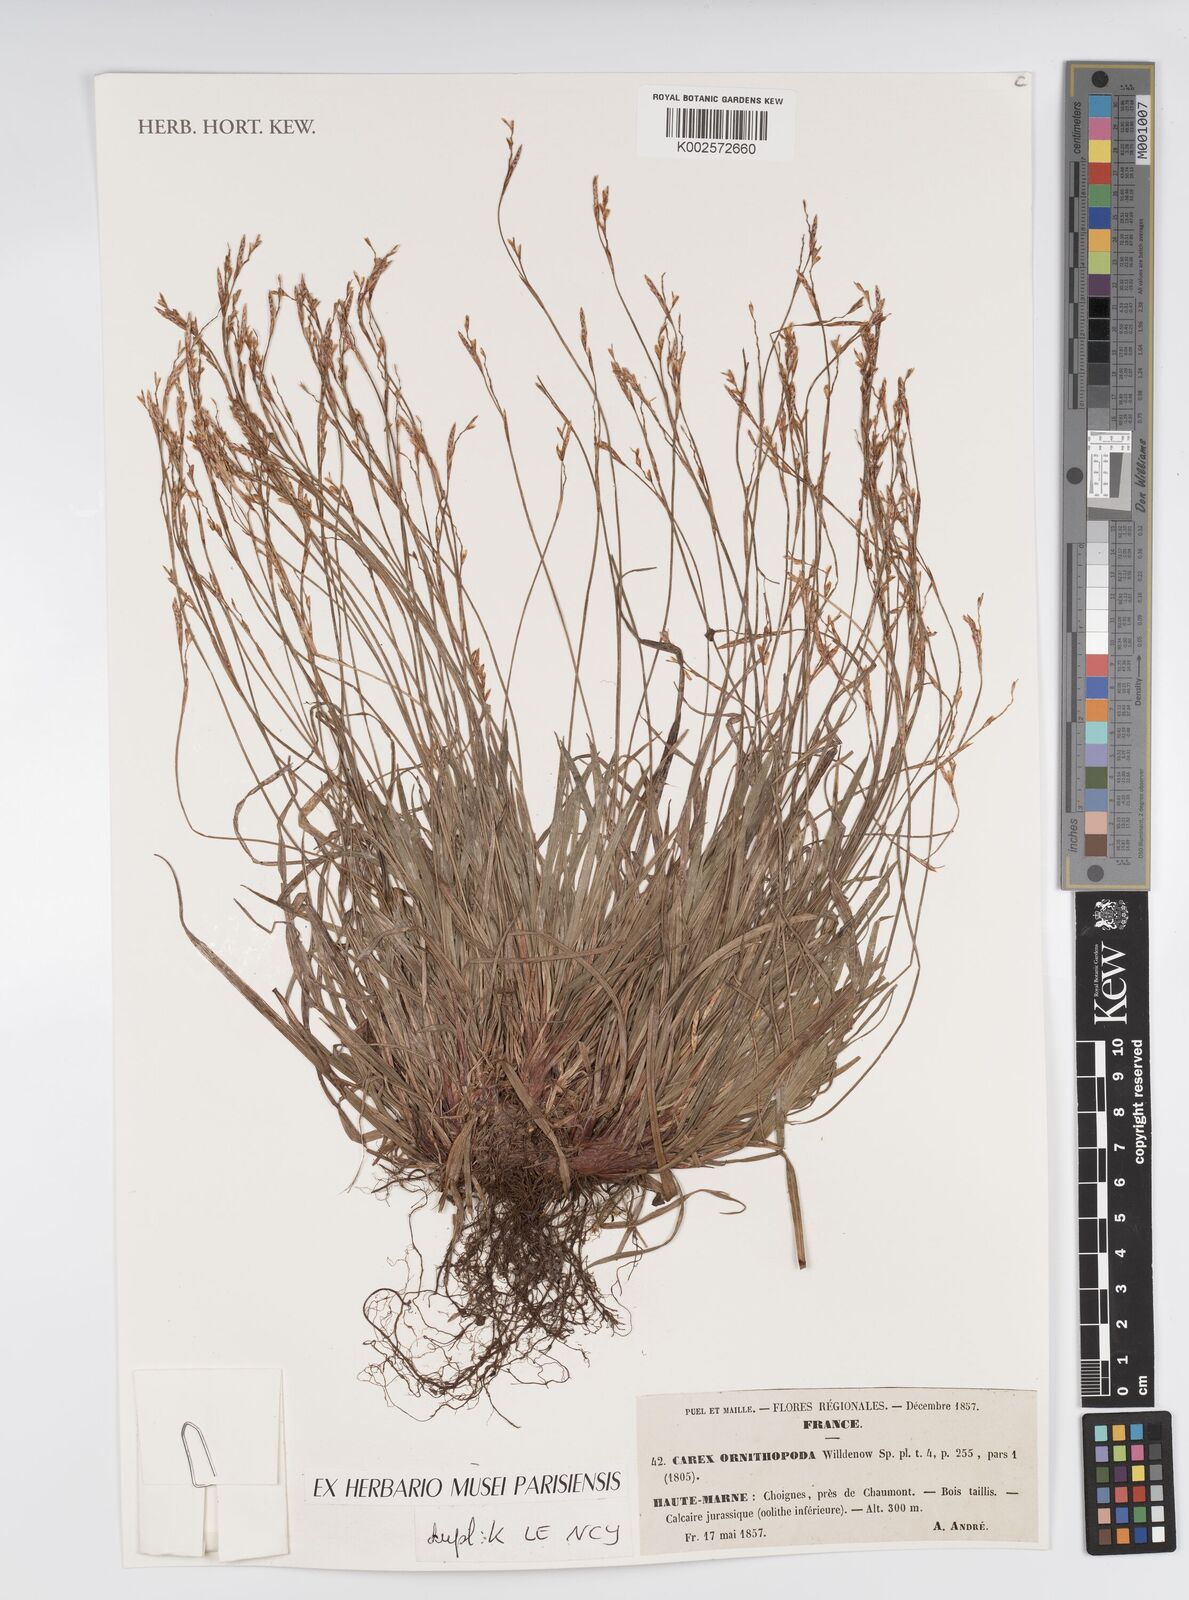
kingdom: Plantae
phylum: Tracheophyta
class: Liliopsida
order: Poales
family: Cyperaceae
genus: Carex
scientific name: Carex ornithopoda
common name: Bird's-foot sedge
